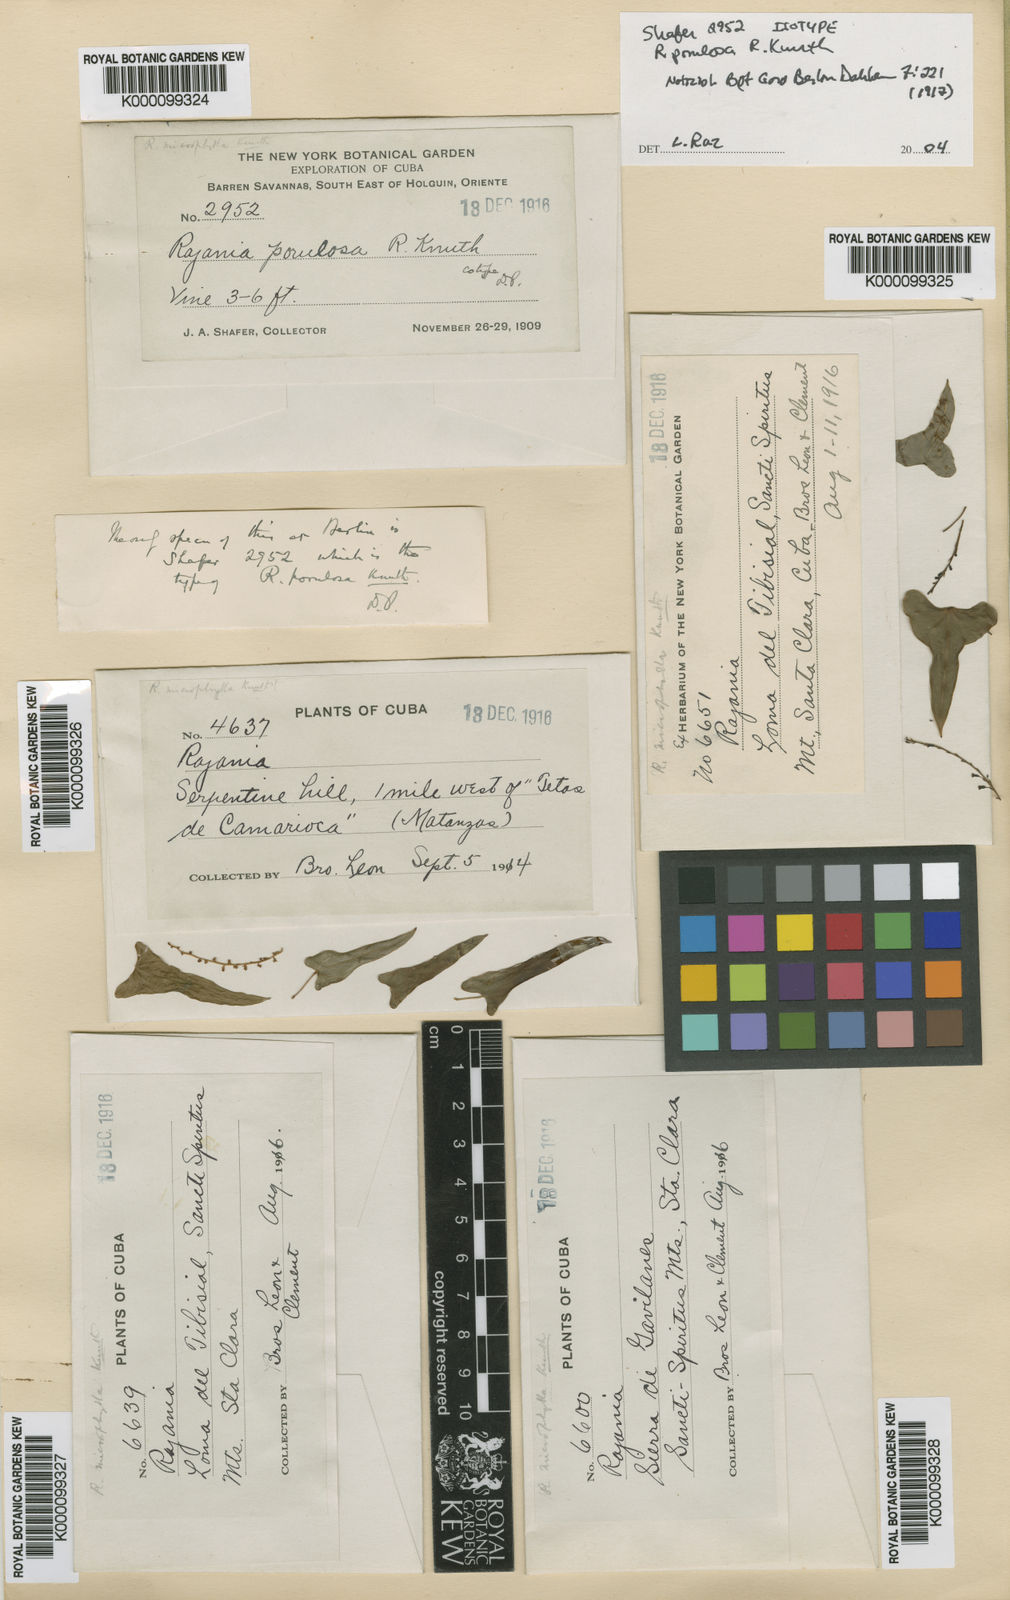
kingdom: Plantae
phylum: Tracheophyta
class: Liliopsida
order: Dioscoreales
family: Dioscoreaceae
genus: Dioscorea
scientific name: Dioscorea porulosa
